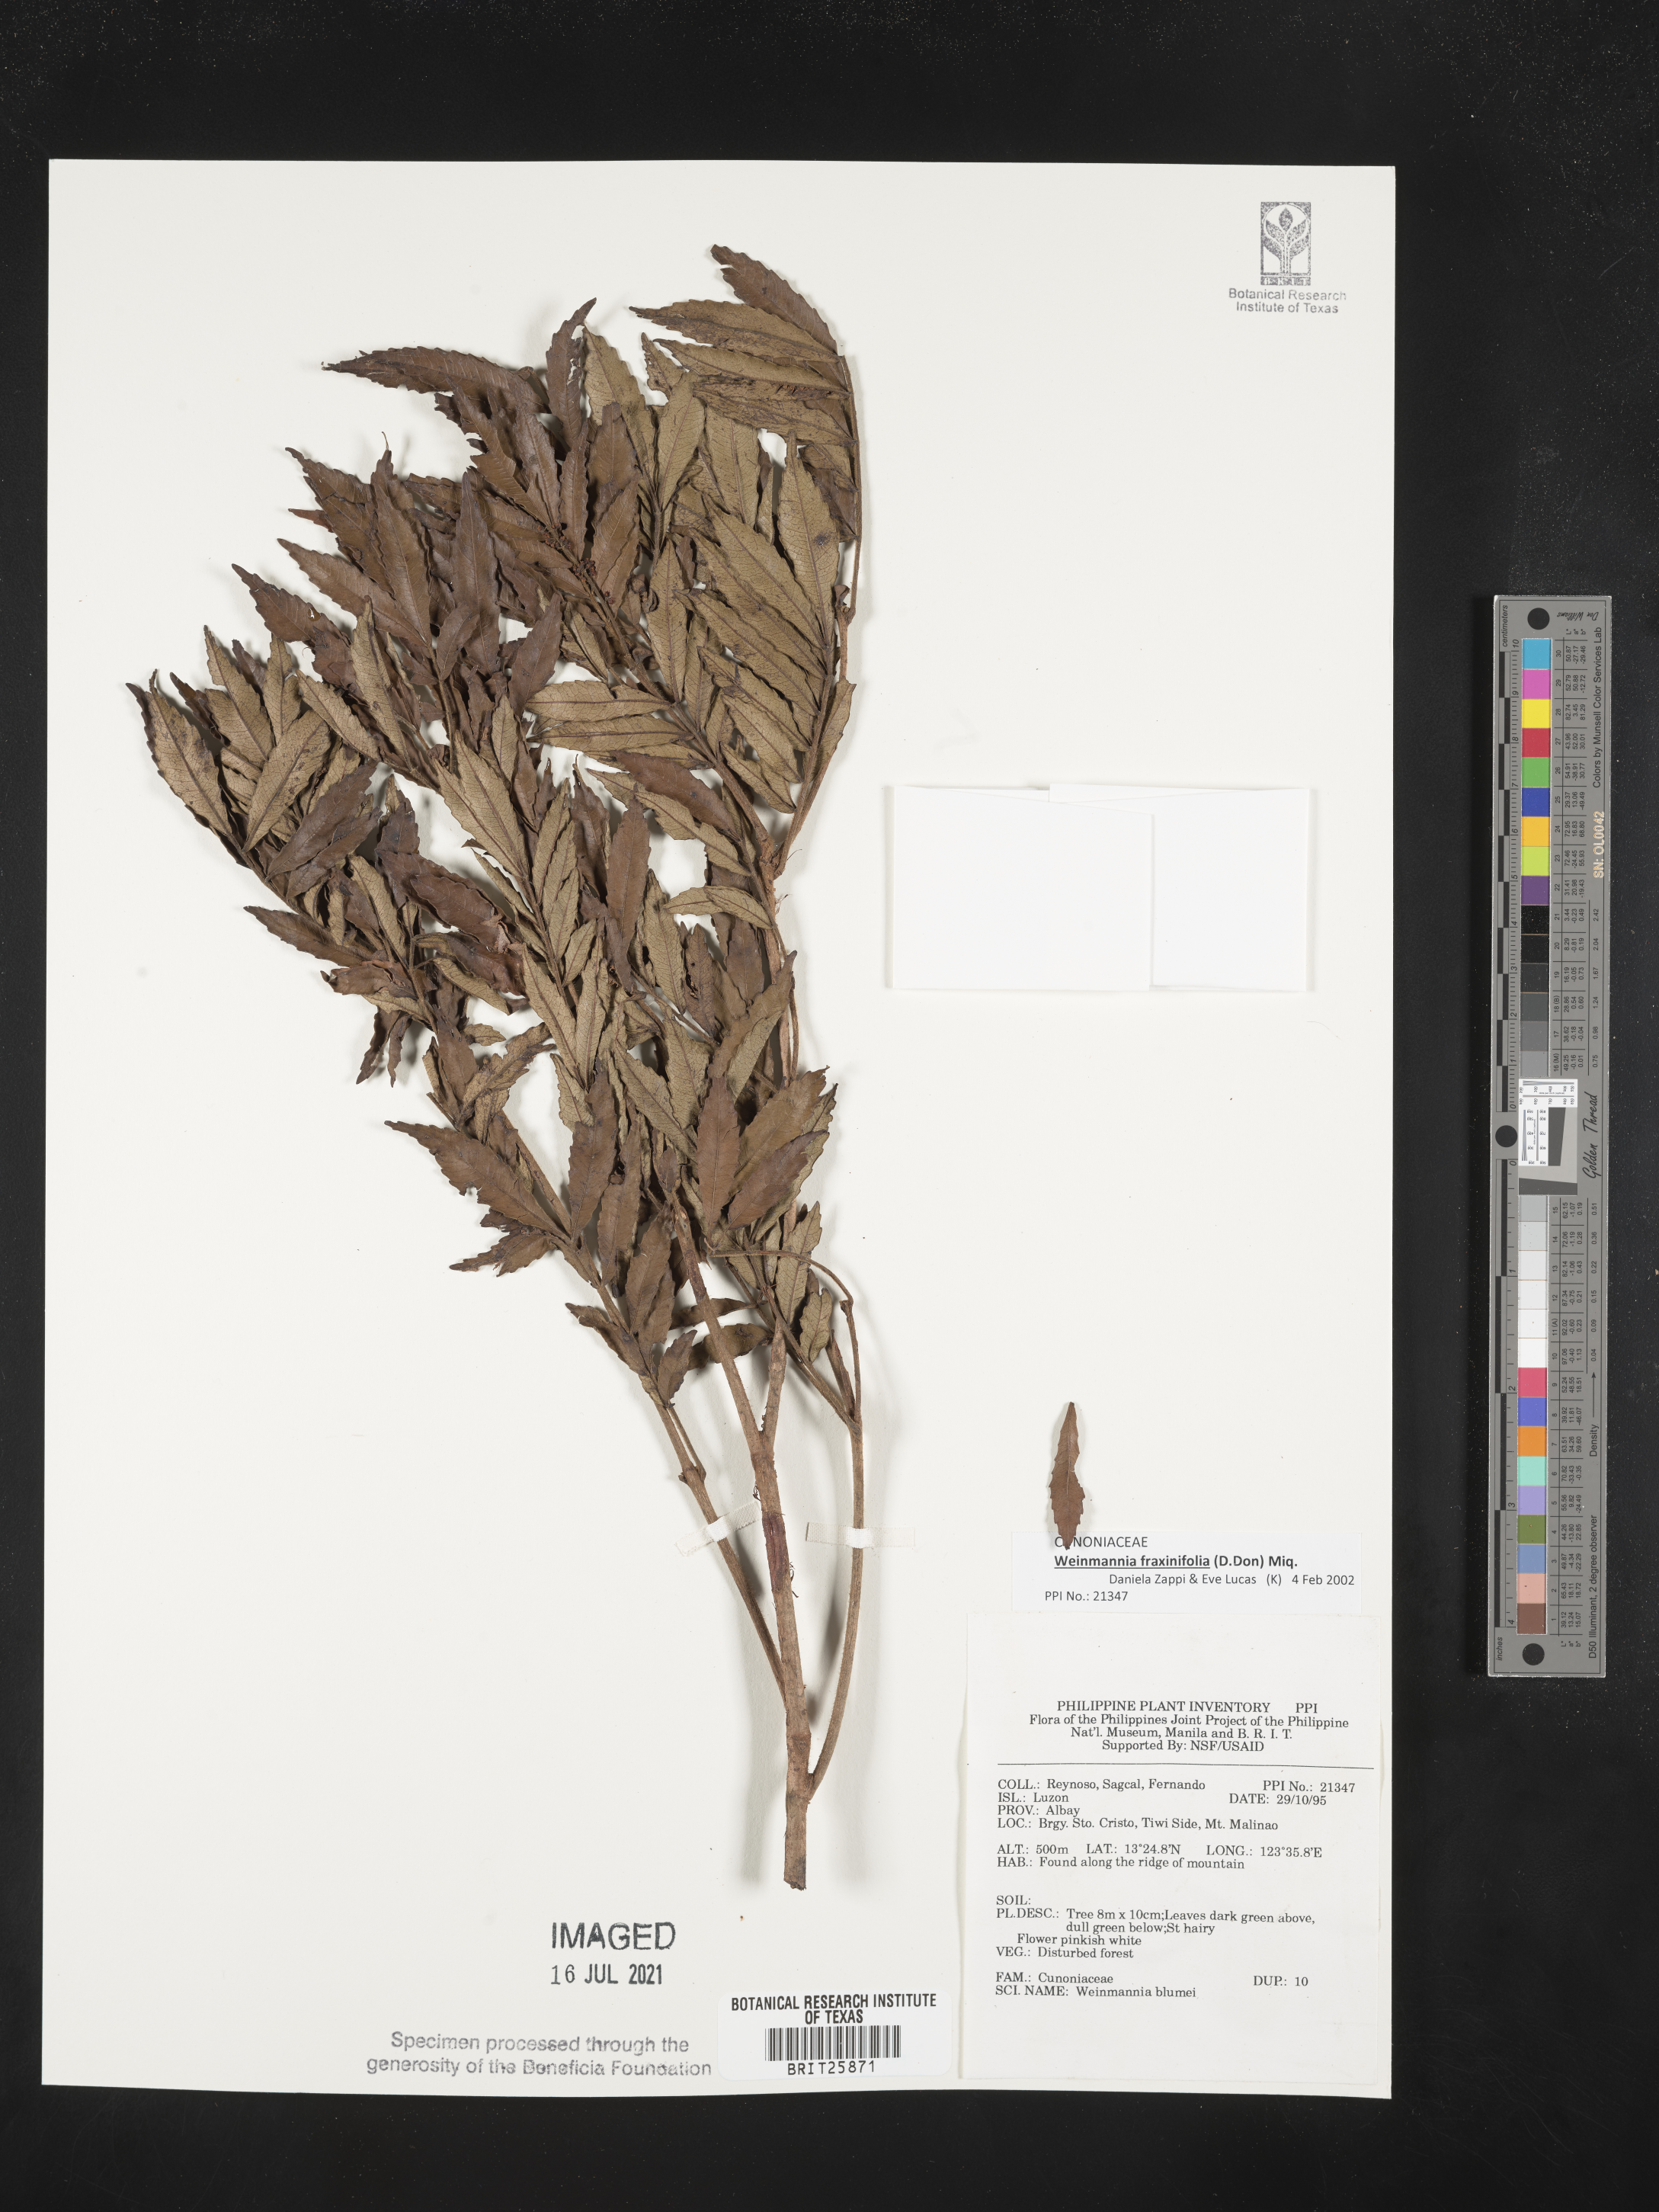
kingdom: Plantae
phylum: Tracheophyta
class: Magnoliopsida
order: Oxalidales
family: Cunoniaceae
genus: Pterophylla
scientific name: Pterophylla fraxinea
